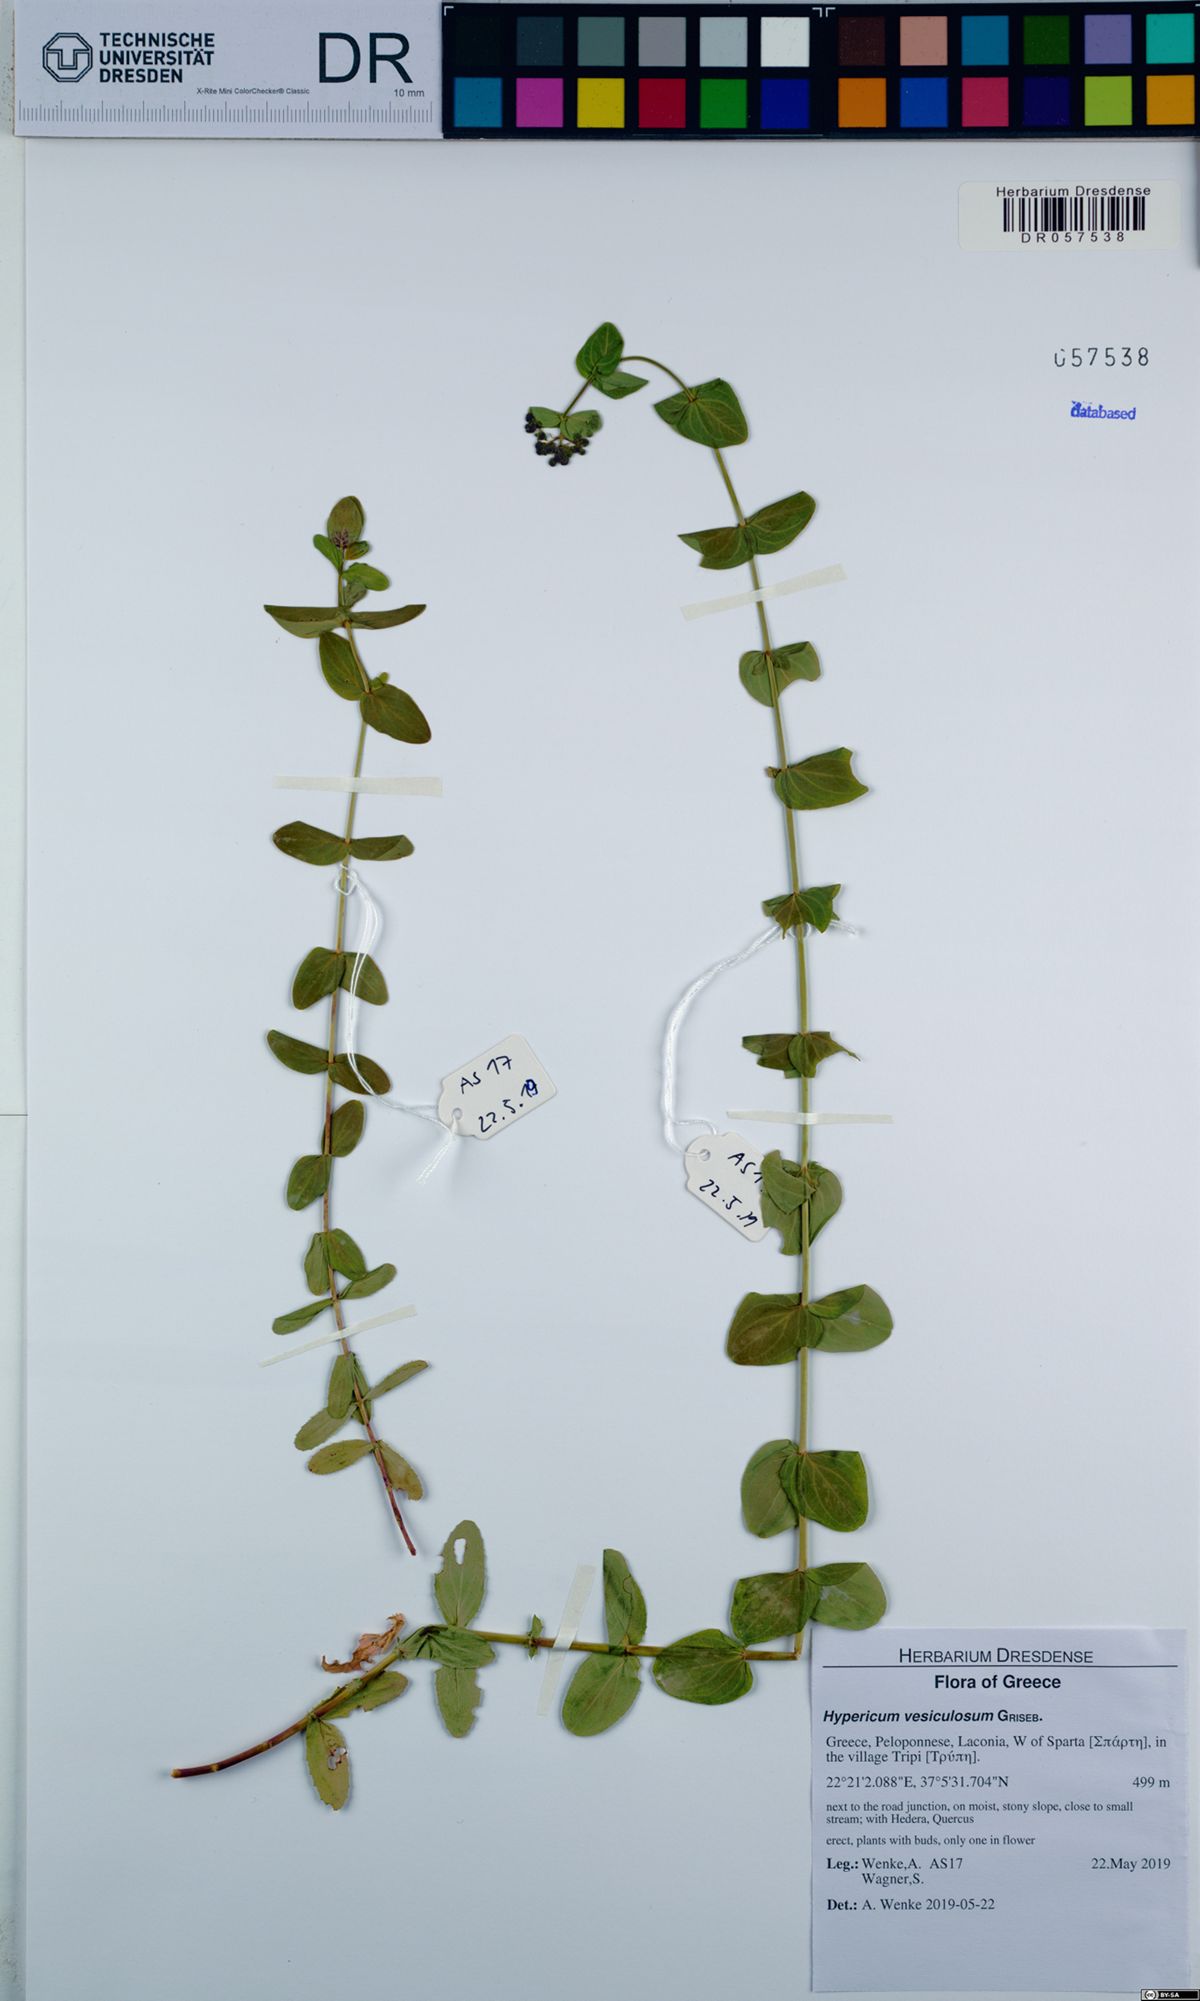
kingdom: Plantae
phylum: Tracheophyta
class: Magnoliopsida
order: Malpighiales
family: Hypericaceae
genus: Hypericum
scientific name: Hypericum vesiculosum
